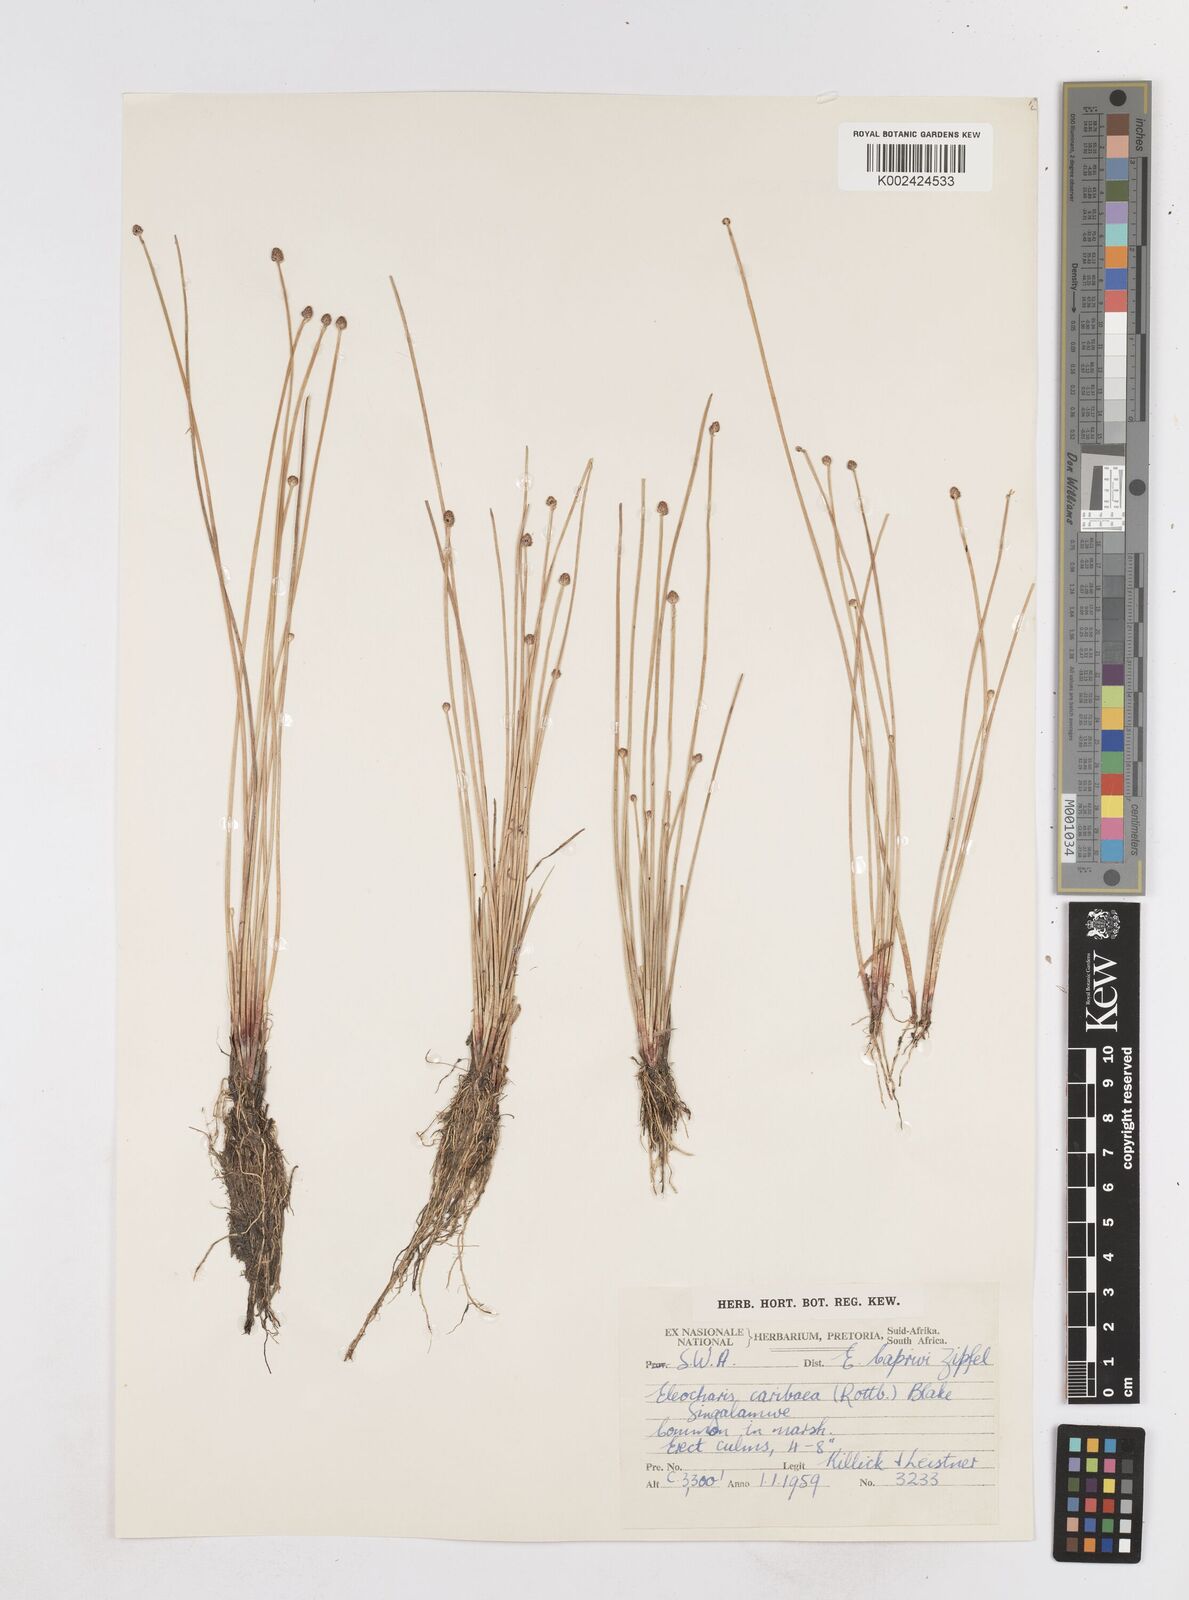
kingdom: Plantae
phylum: Tracheophyta
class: Liliopsida
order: Poales
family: Cyperaceae
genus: Eleocharis
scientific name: Eleocharis geniculata
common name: Canada spikesedge
